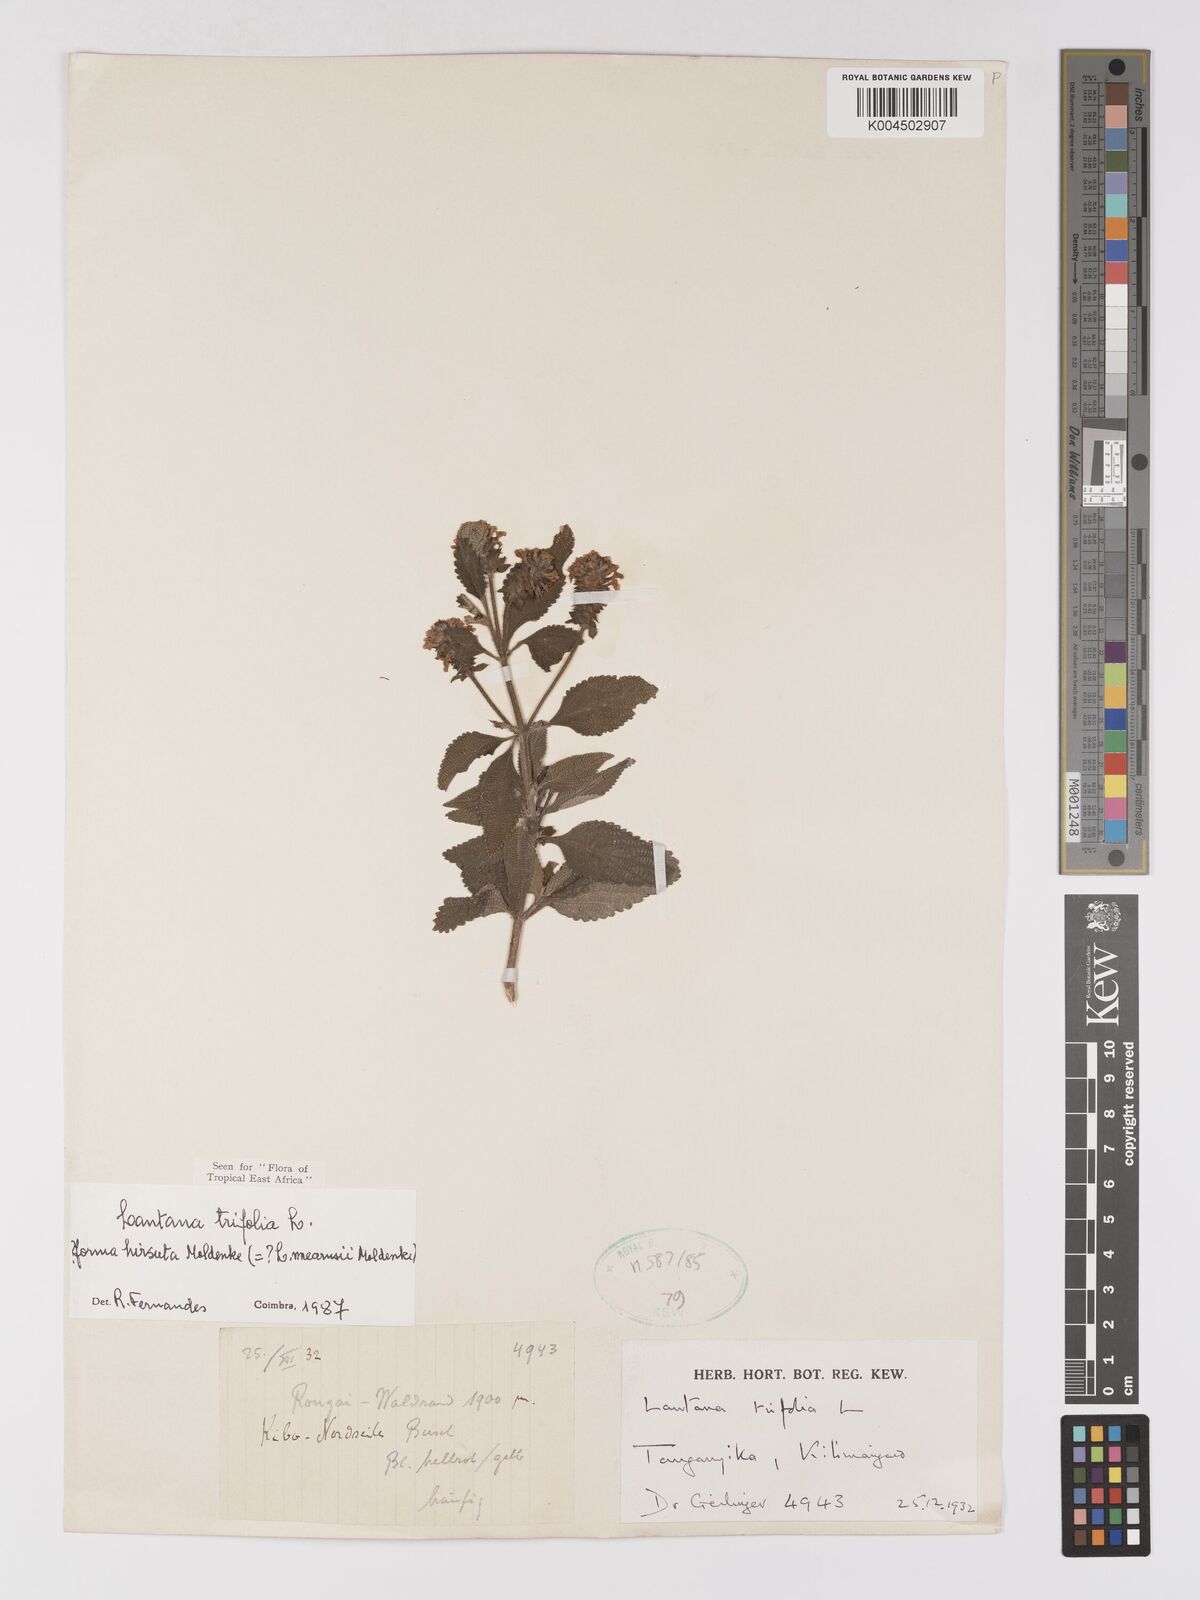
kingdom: Plantae
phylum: Tracheophyta
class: Magnoliopsida
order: Lamiales
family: Verbenaceae
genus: Lantana
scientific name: Lantana trifolia
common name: Sweet-sage
